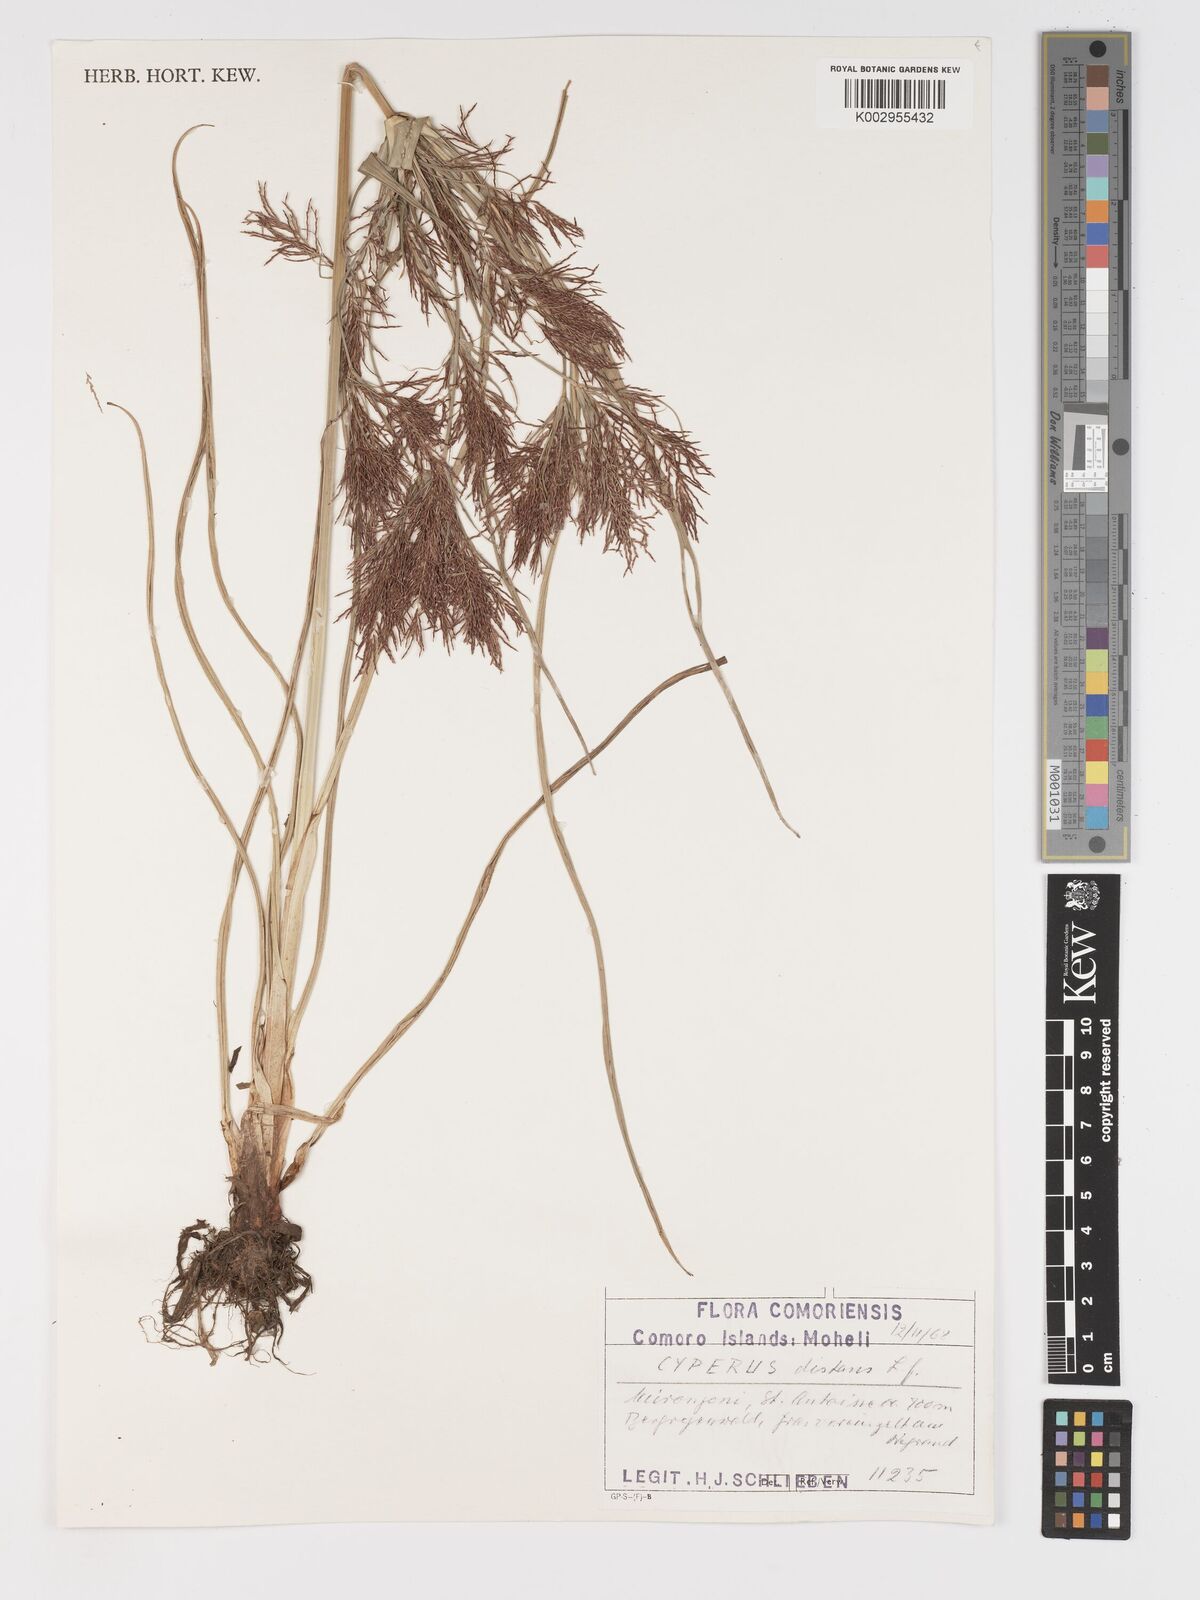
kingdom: Plantae
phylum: Tracheophyta
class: Liliopsida
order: Poales
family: Cyperaceae
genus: Cyperus
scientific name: Cyperus distans
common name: Slender cyperus
